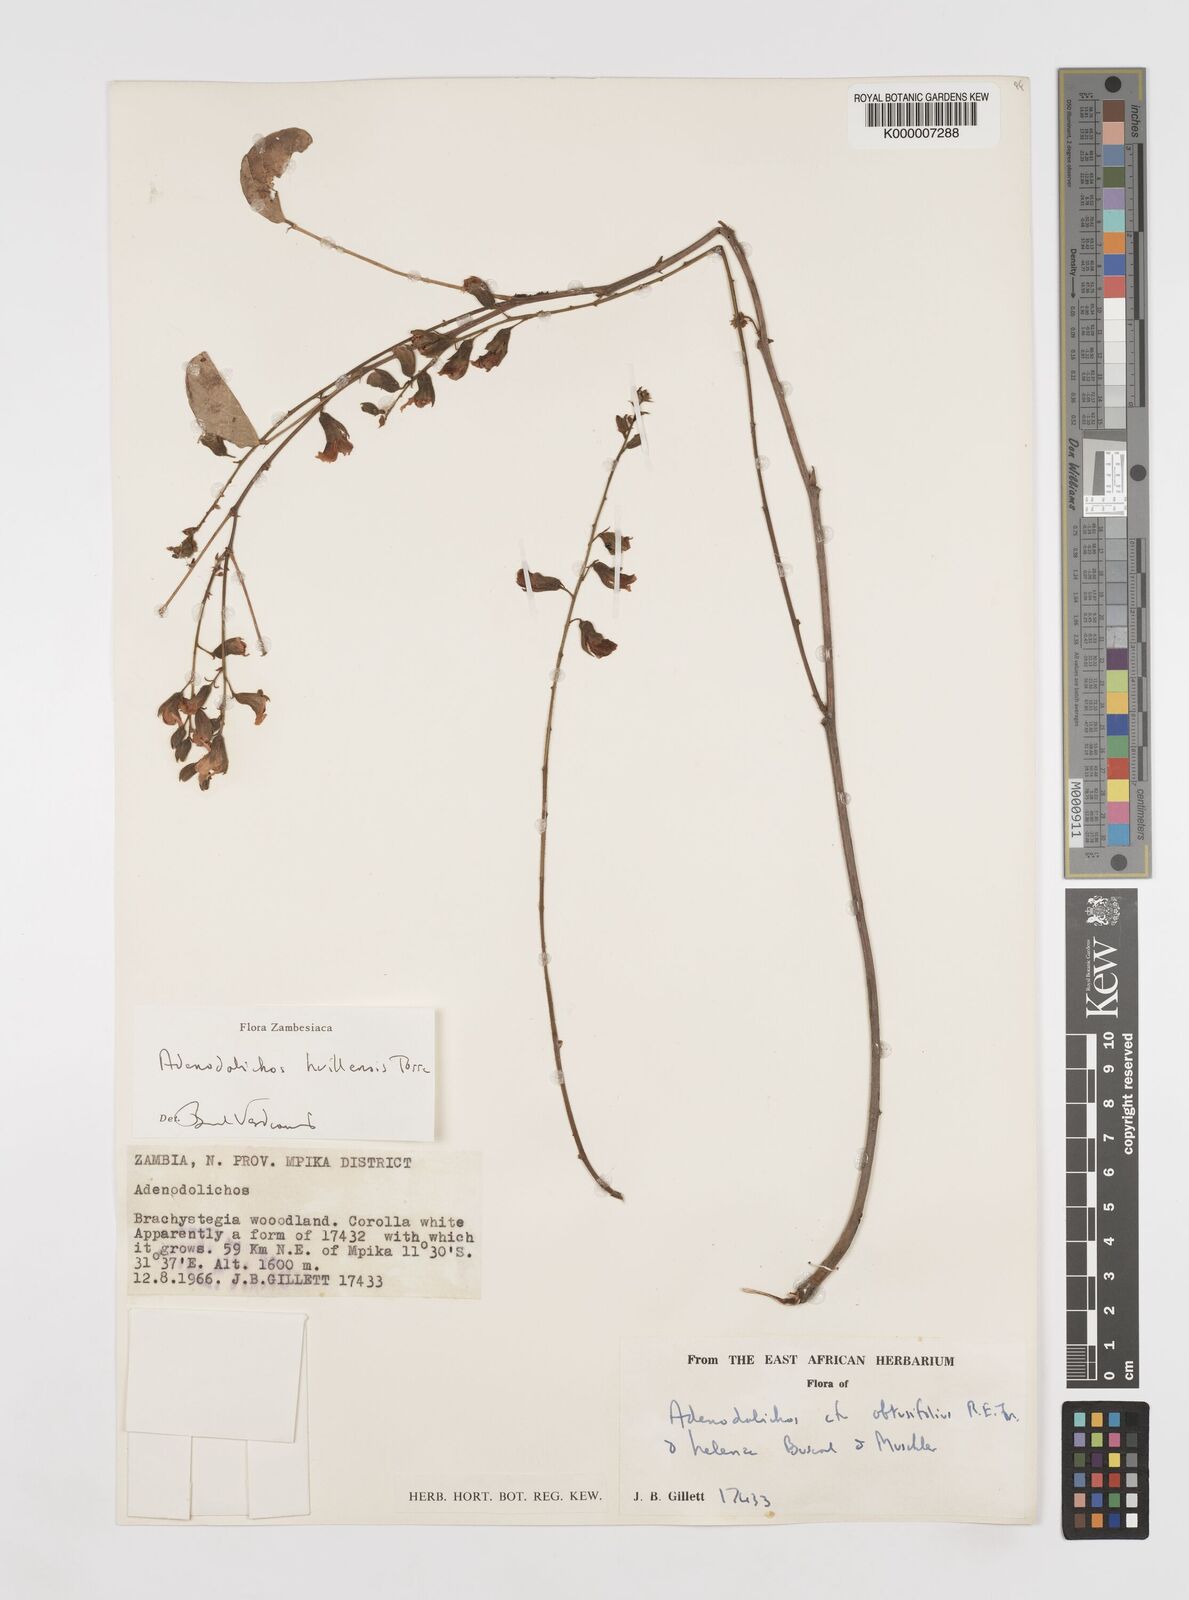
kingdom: Plantae
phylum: Tracheophyta
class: Magnoliopsida
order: Fabales
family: Fabaceae
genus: Adenodolichos
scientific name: Adenodolichos huillensis
